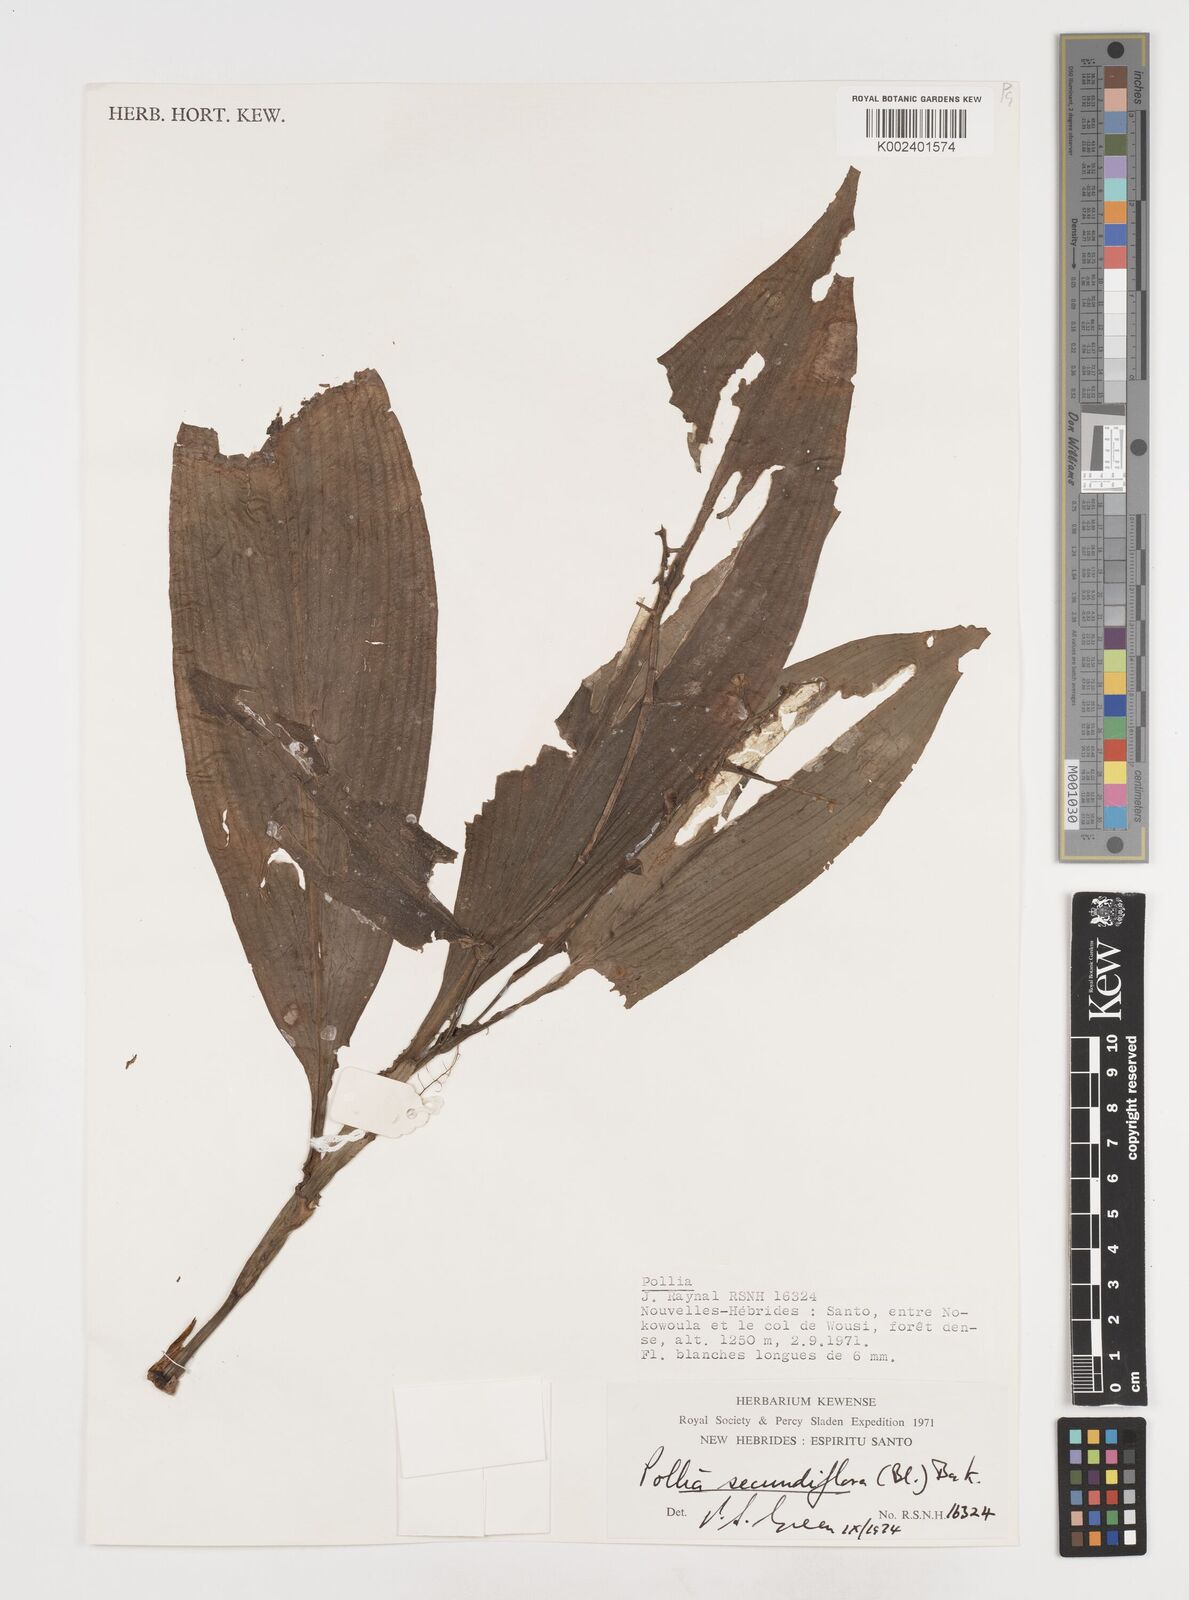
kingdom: Plantae
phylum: Tracheophyta
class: Liliopsida
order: Commelinales
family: Commelinaceae
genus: Pollia
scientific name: Pollia secundiflora
